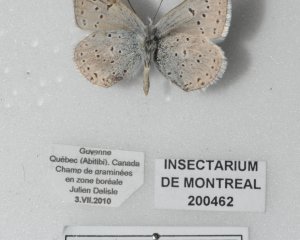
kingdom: Animalia
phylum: Arthropoda
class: Insecta
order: Lepidoptera
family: Lycaenidae
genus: Plebejus
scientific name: Plebejus saepiolus
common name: Greenish Blue
